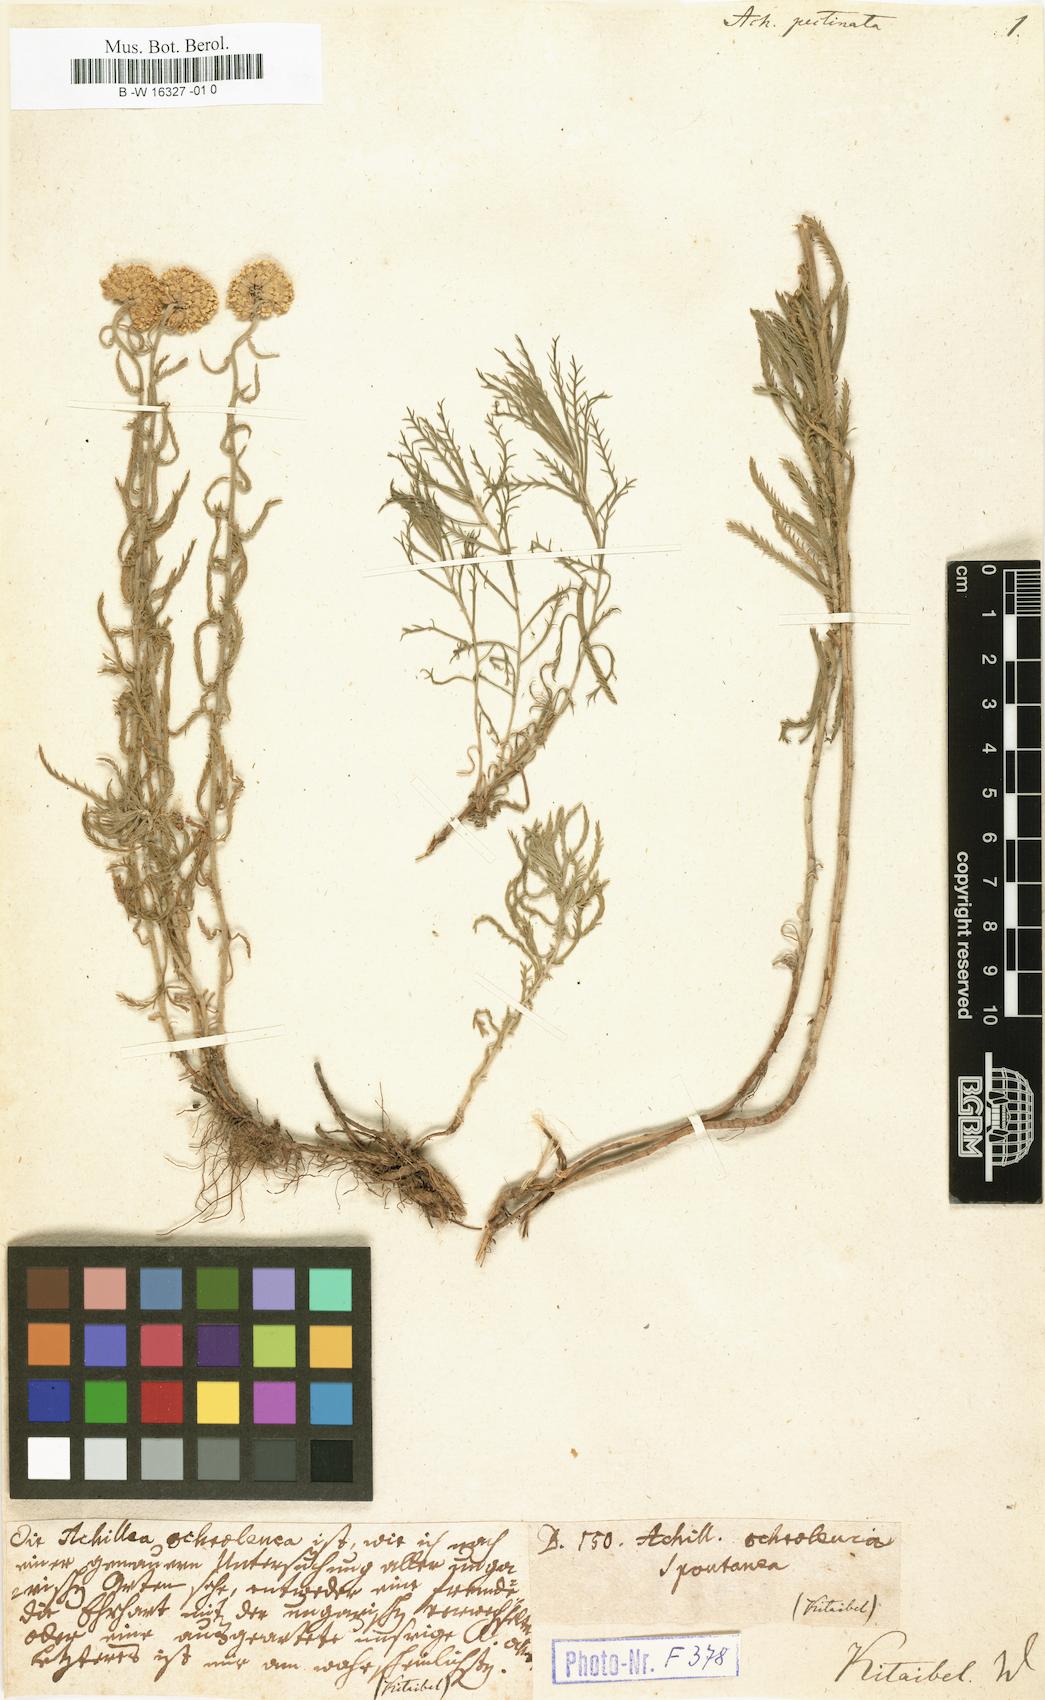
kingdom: Plantae
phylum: Tracheophyta
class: Magnoliopsida
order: Asterales
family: Asteraceae
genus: Achillea
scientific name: Achillea ochroleuca
